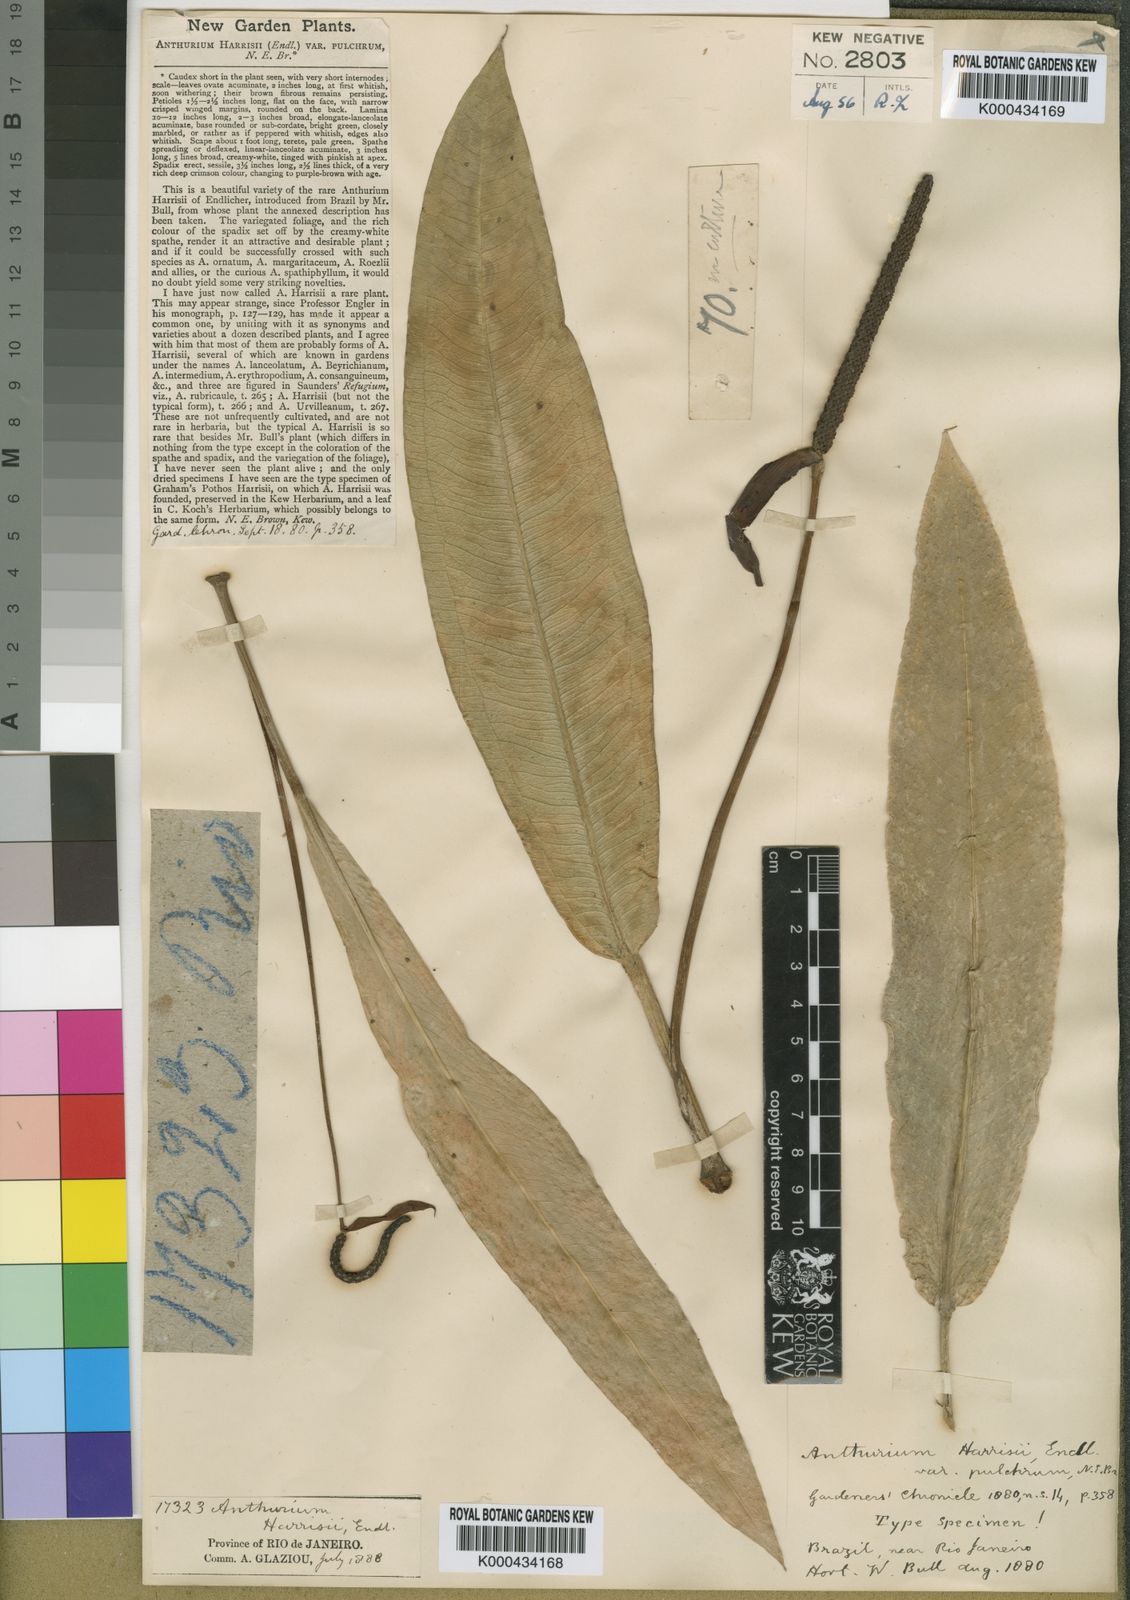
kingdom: Plantae
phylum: Tracheophyta
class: Liliopsida
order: Alismatales
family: Araceae
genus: Anthurium
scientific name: Anthurium harrisii
